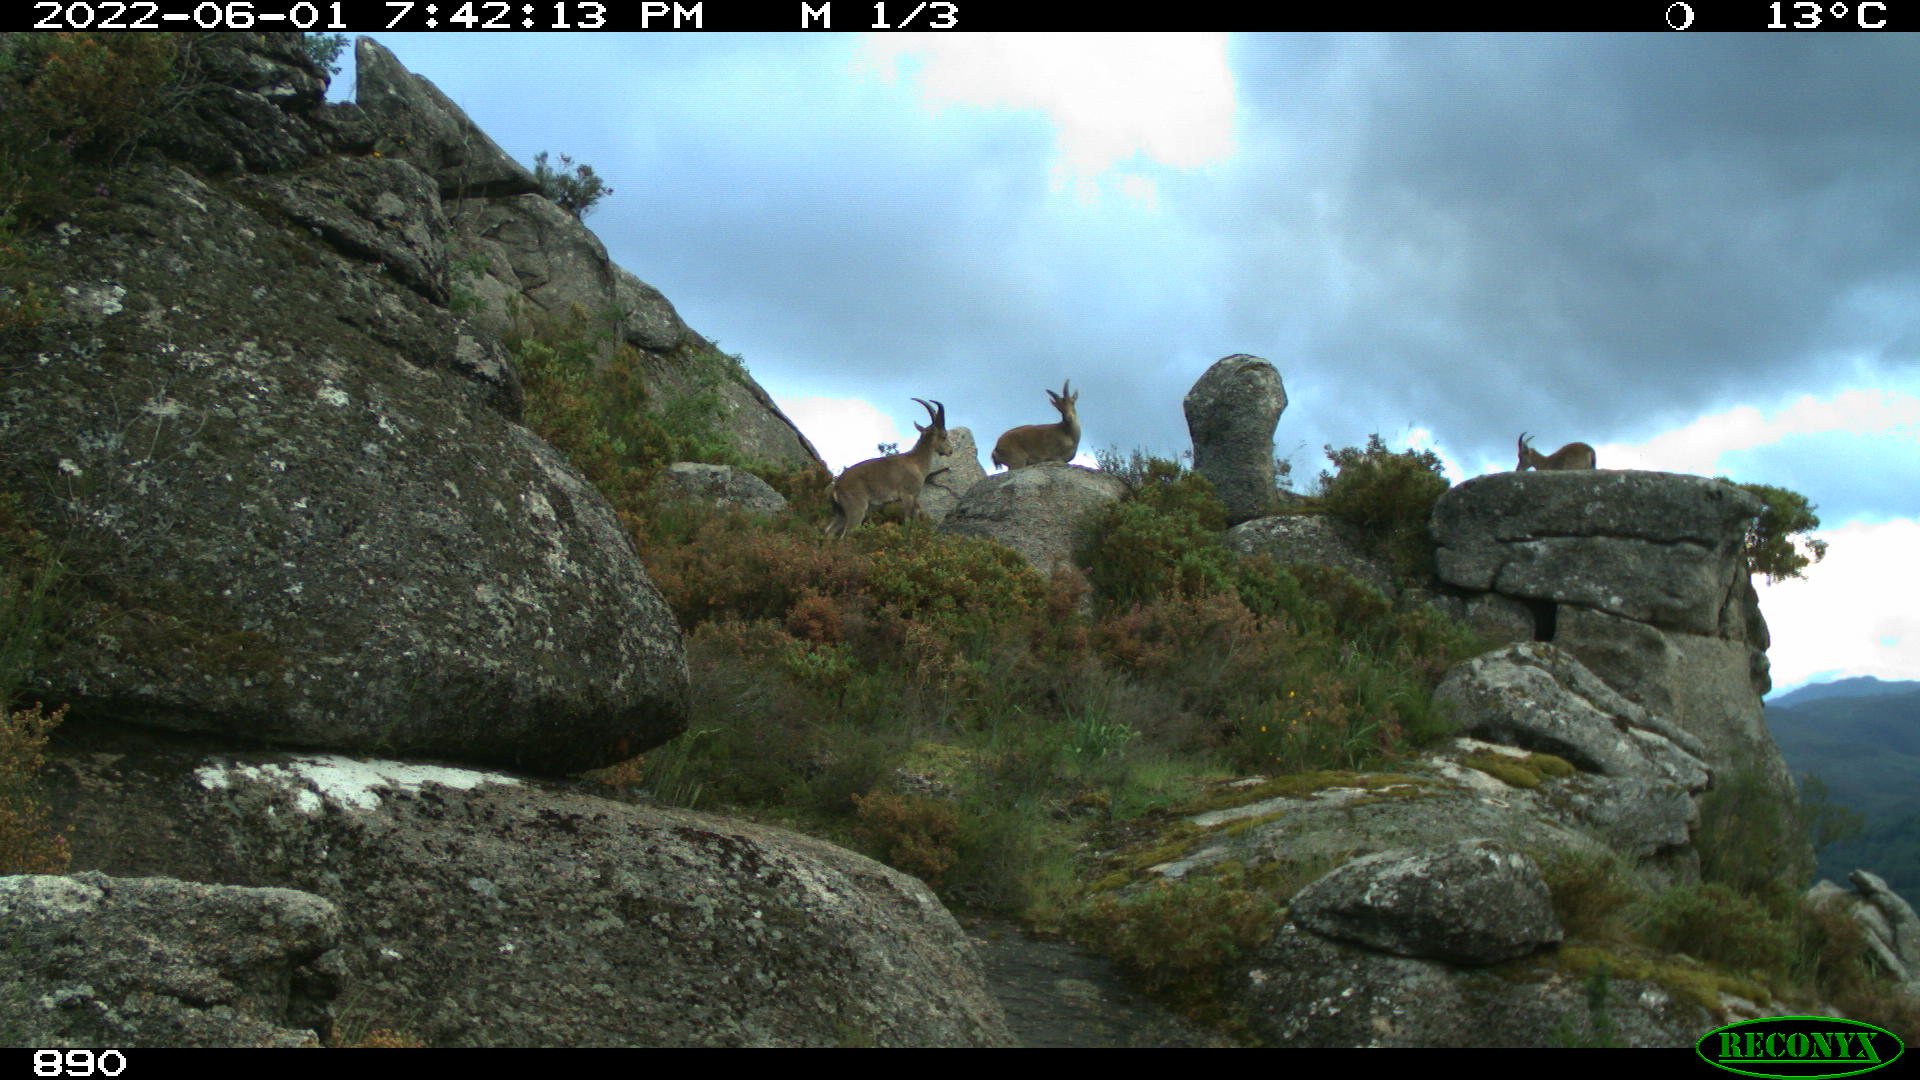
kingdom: Animalia
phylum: Chordata
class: Mammalia
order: Artiodactyla
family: Bovidae
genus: Capra
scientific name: Capra pyrenaica
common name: Spanish ibex
